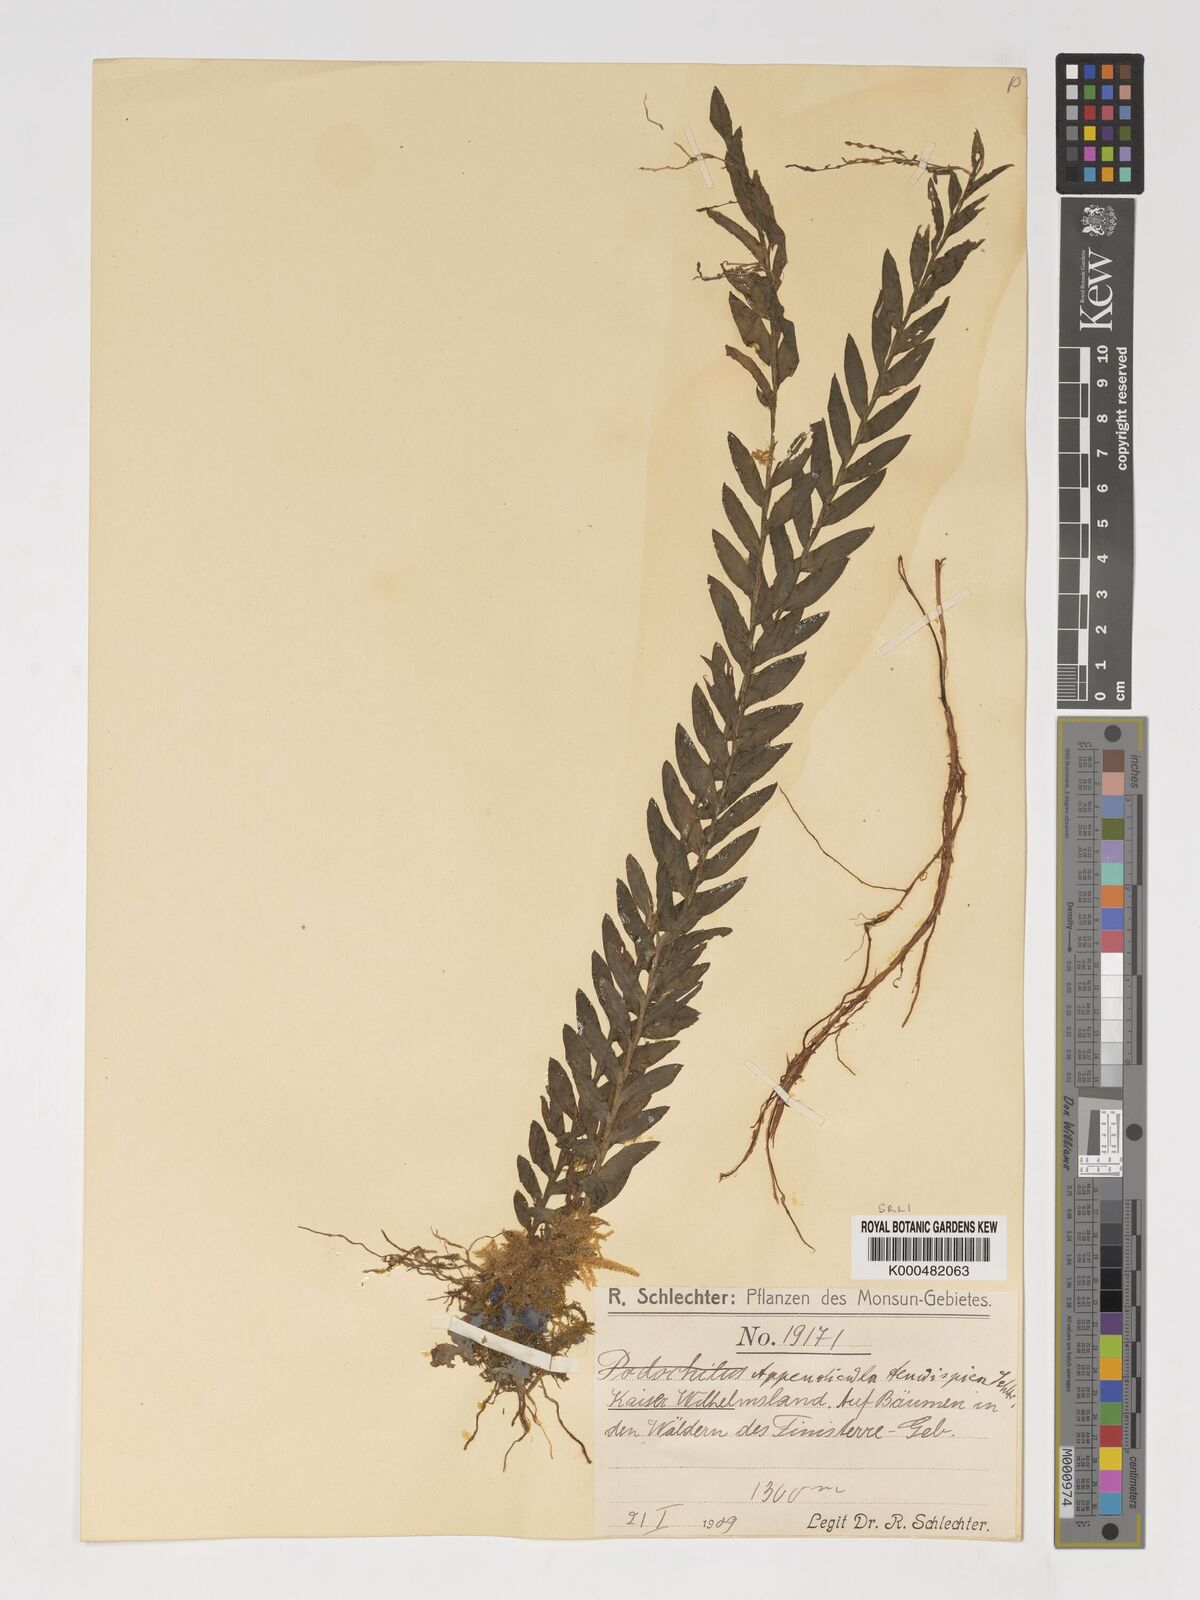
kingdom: Plantae
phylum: Tracheophyta
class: Liliopsida
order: Asparagales
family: Orchidaceae
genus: Appendicula
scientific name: Appendicula tenuispica
